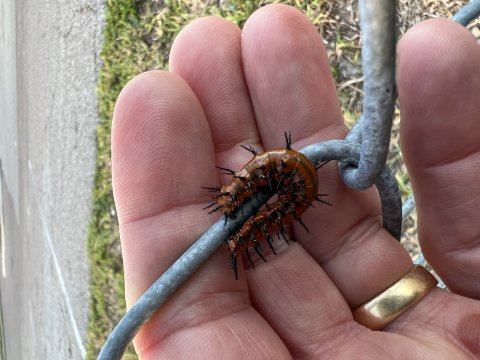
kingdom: Animalia
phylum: Arthropoda
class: Insecta
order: Lepidoptera
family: Nymphalidae
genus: Dione
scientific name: Dione vanillae
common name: Gulf Fritillary
